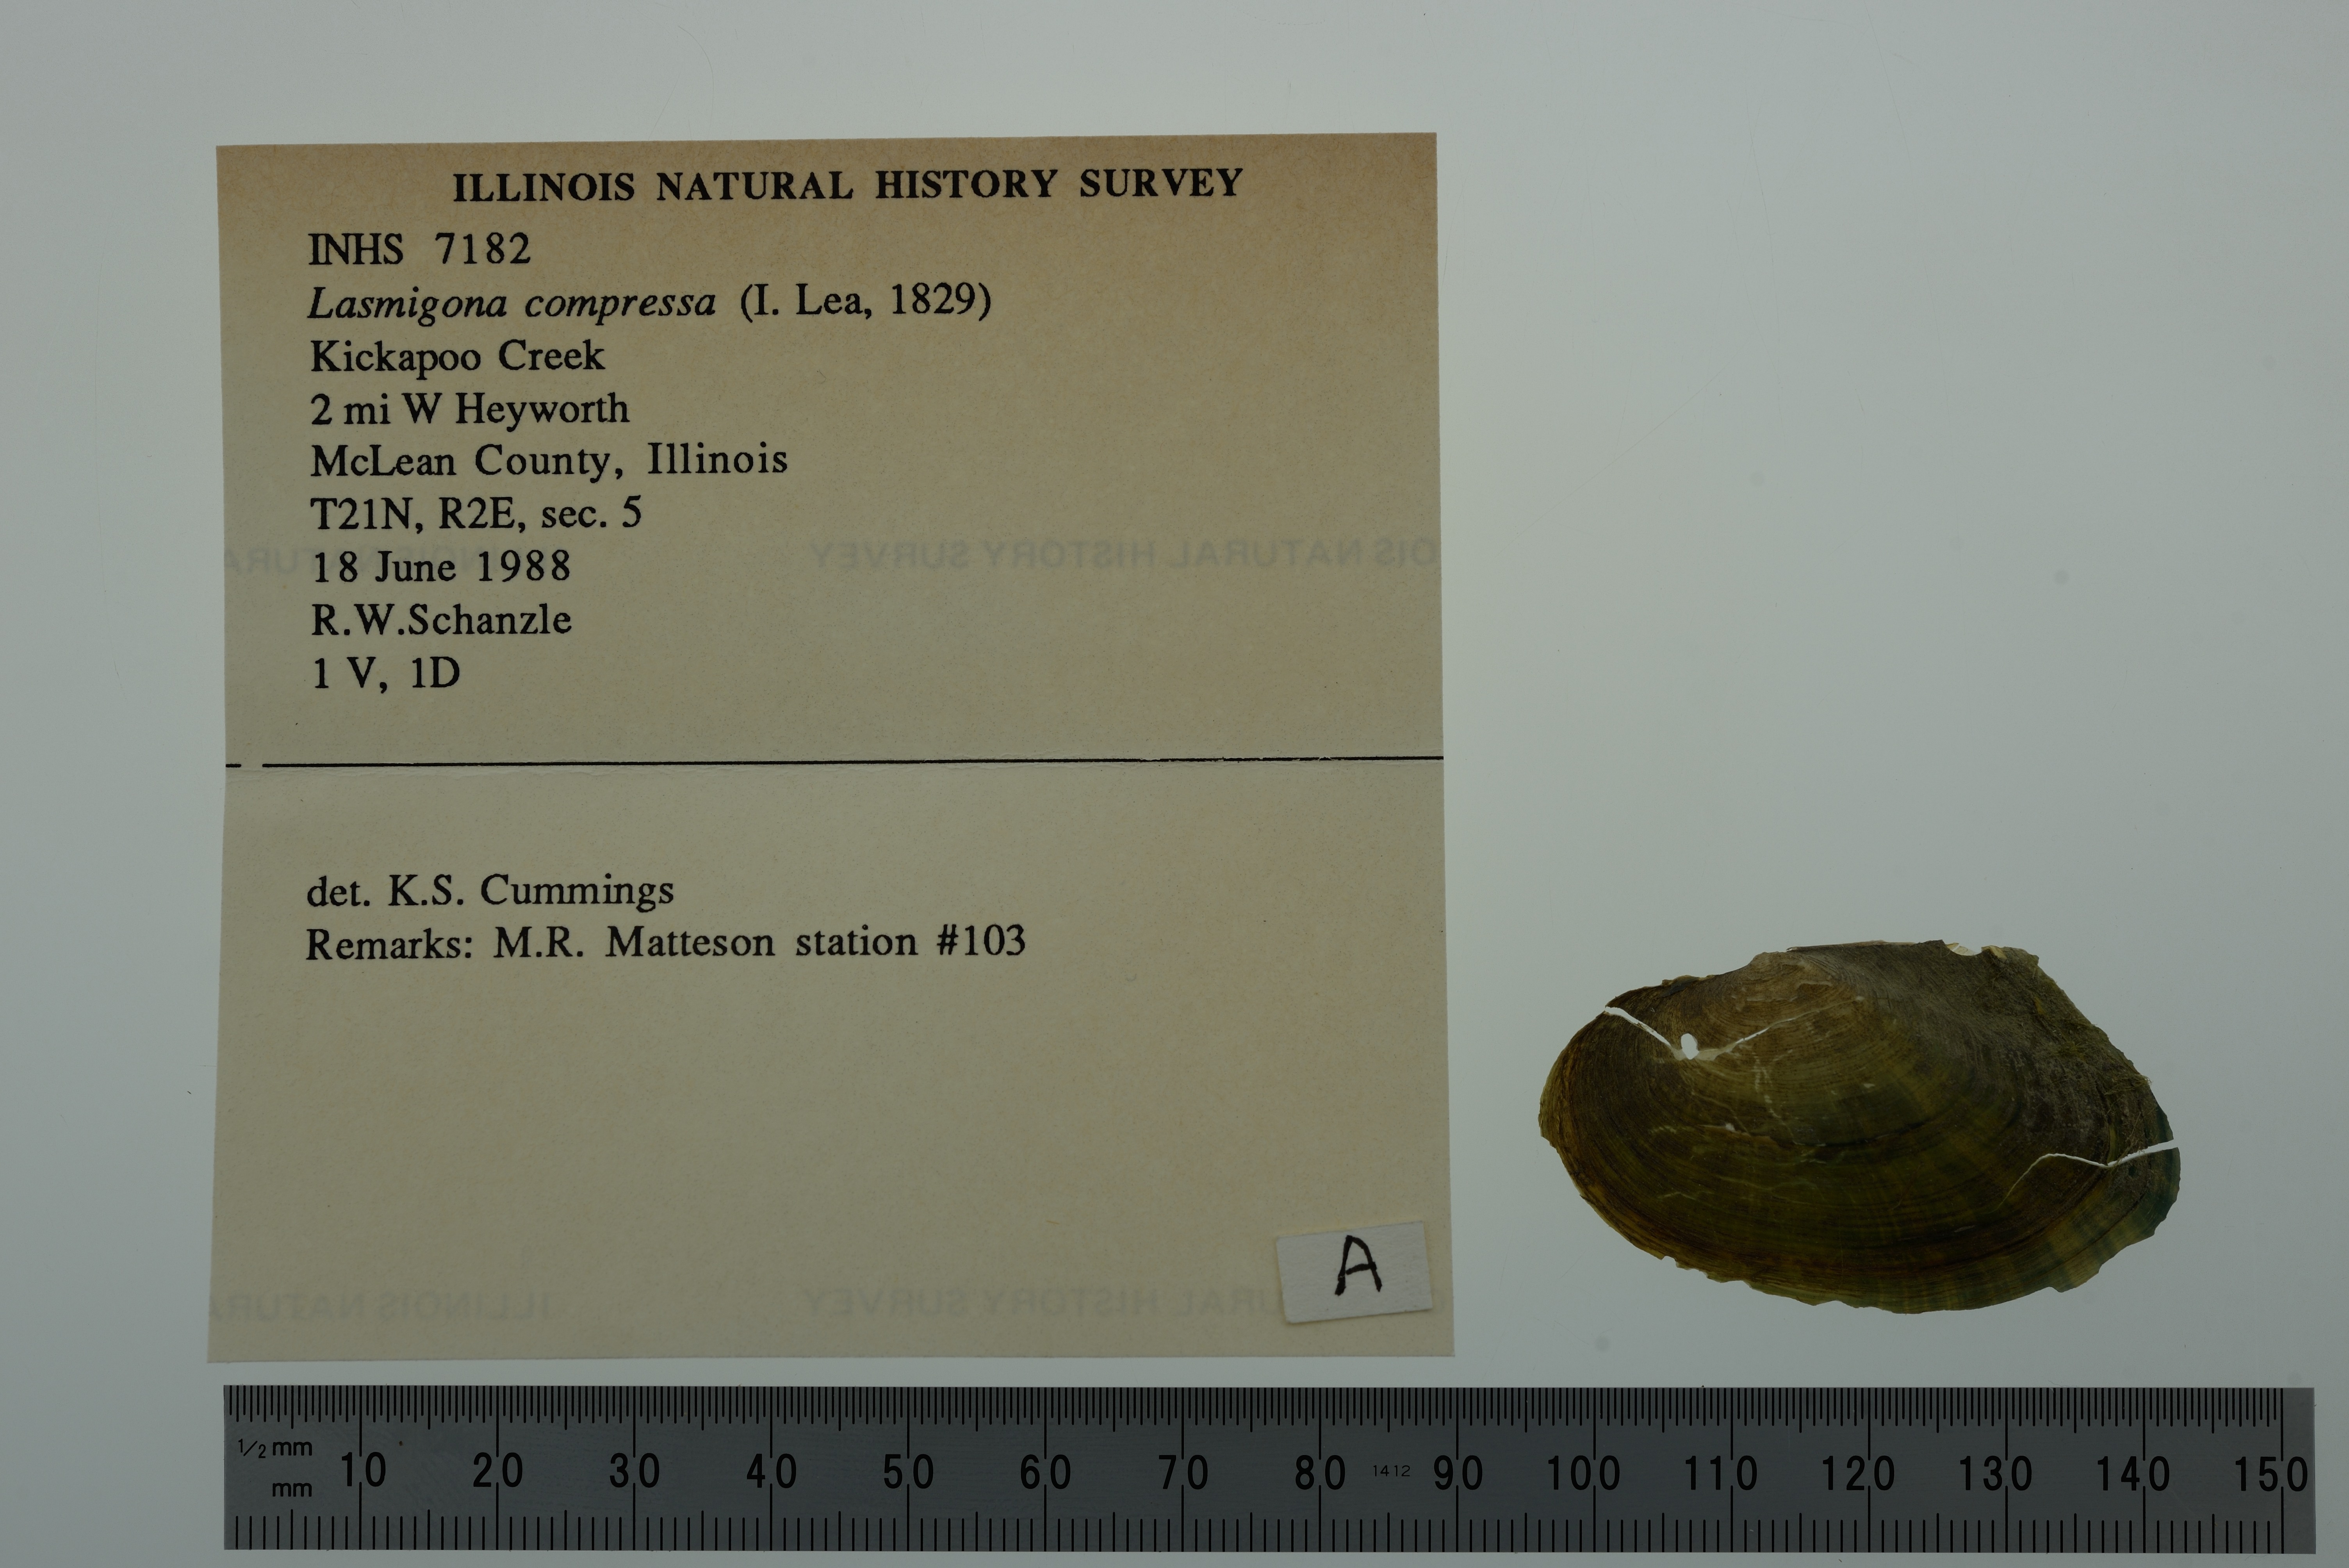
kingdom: Animalia
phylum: Mollusca
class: Bivalvia
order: Unionida
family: Unionidae
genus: Lasmigona
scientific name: Lasmigona compressa
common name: Creek heelsplitter
